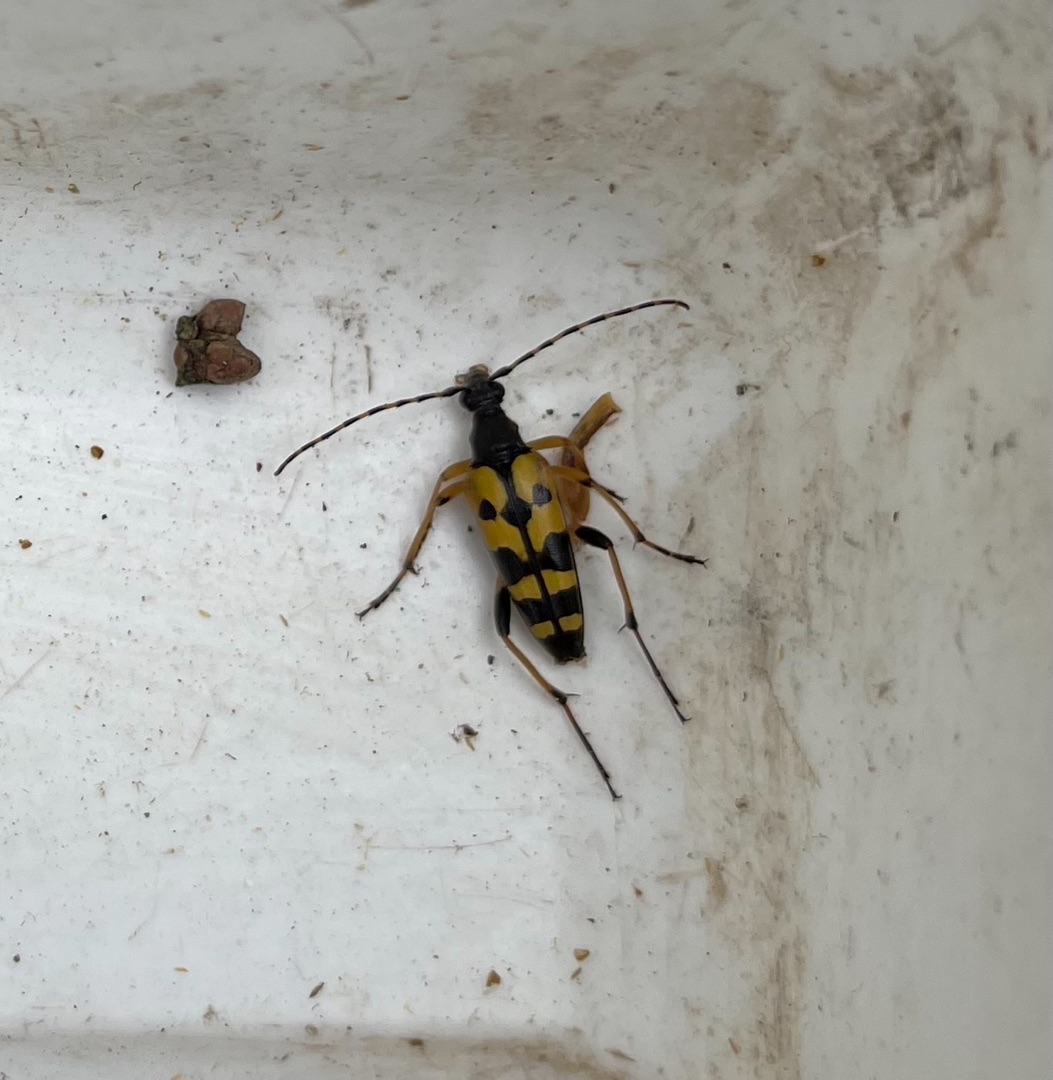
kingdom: Animalia
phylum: Arthropoda
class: Insecta
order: Coleoptera
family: Cerambycidae
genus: Rutpela
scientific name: Rutpela maculata
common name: Sydlig blomsterbuk
